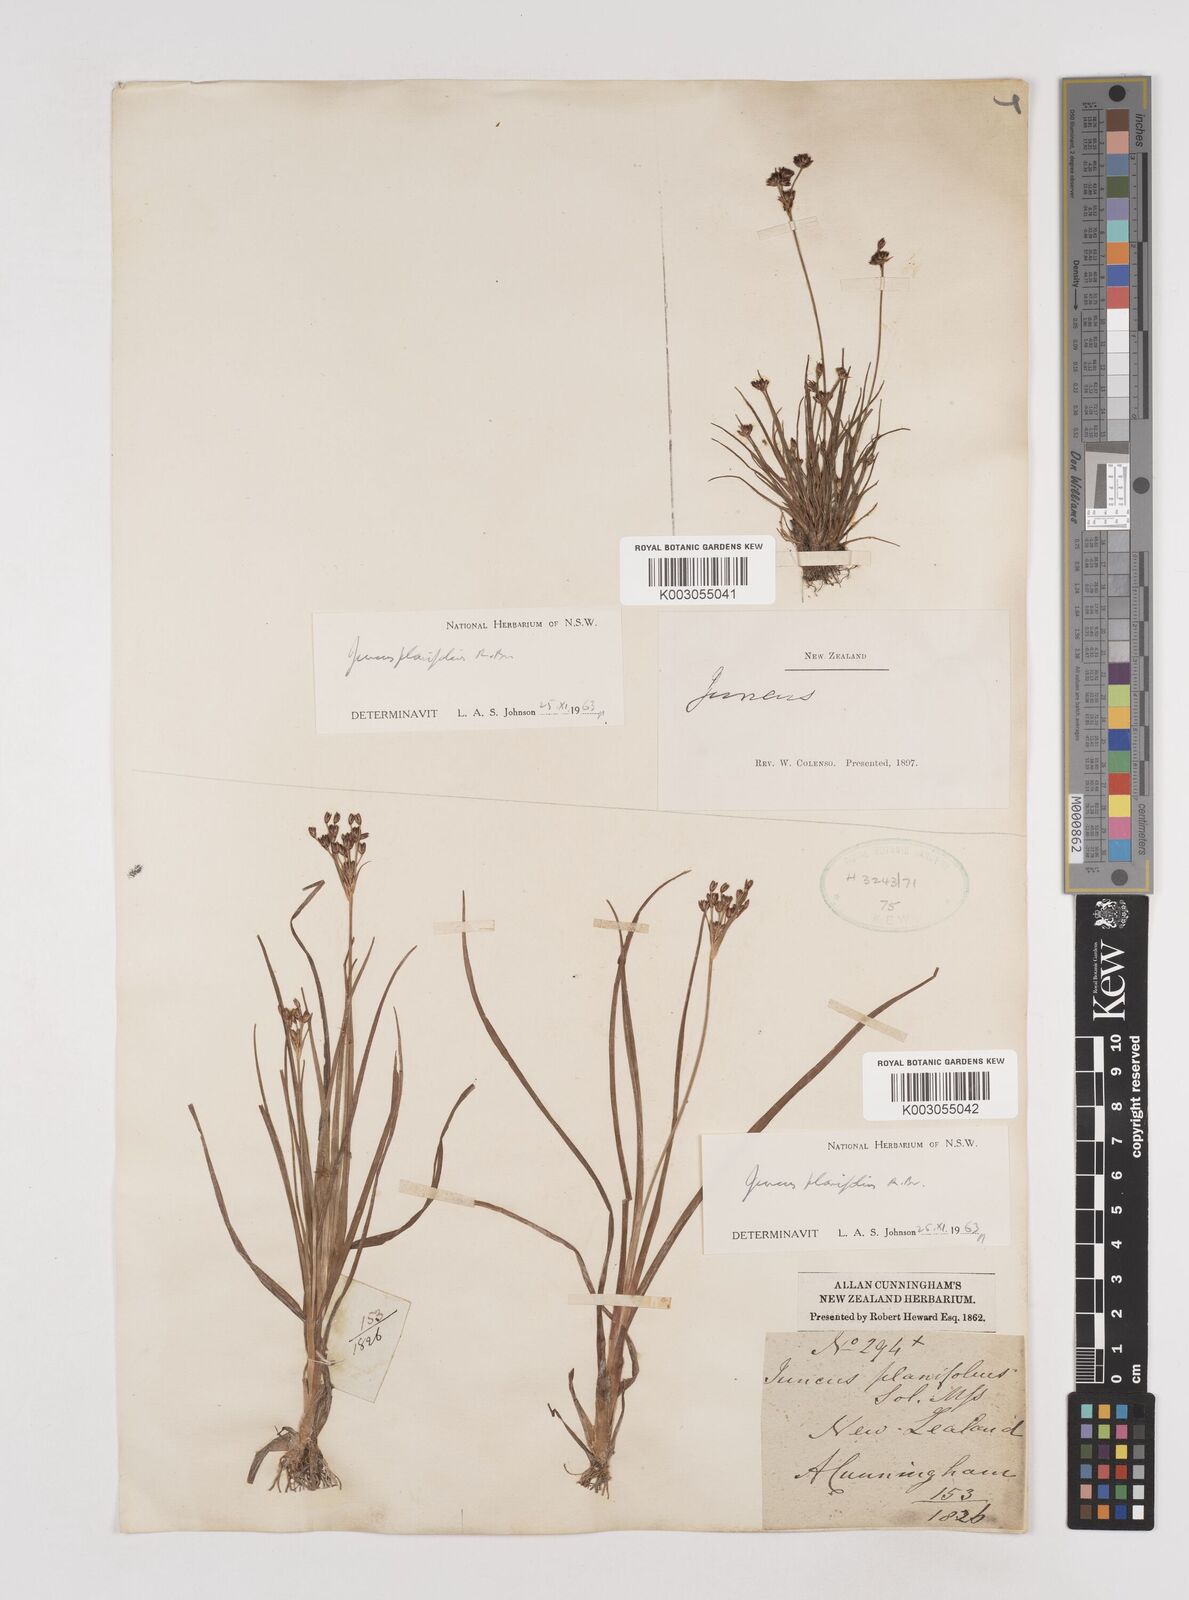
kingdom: Plantae
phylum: Tracheophyta
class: Liliopsida
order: Poales
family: Juncaceae
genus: Juncus
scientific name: Juncus planifolius
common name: Broadleaf rush
